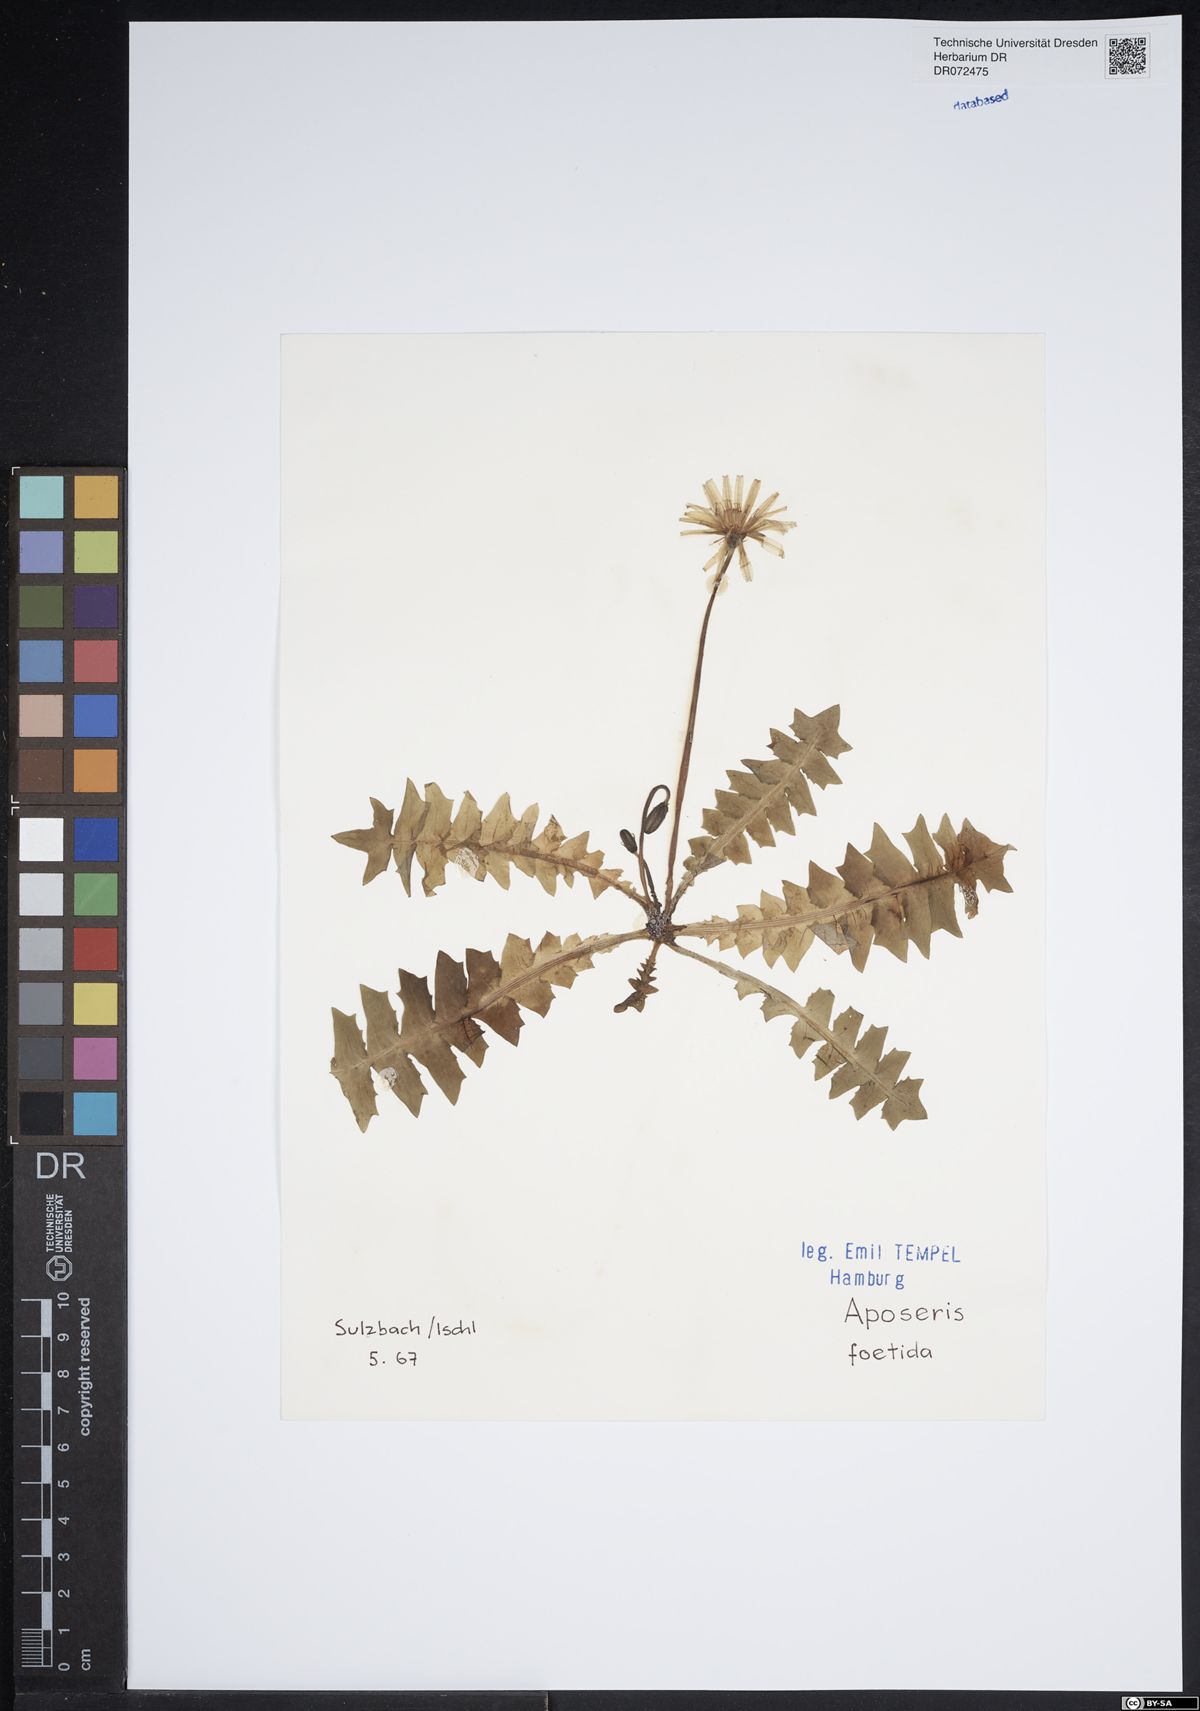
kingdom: Plantae
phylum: Tracheophyta
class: Magnoliopsida
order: Asterales
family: Asteraceae
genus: Aposeris
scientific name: Aposeris foetida
